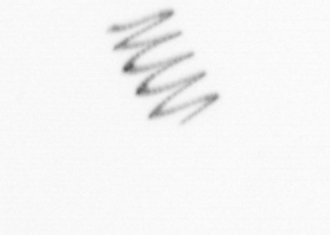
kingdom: Chromista
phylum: Ochrophyta
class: Bacillariophyceae
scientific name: Bacillariophyceae
